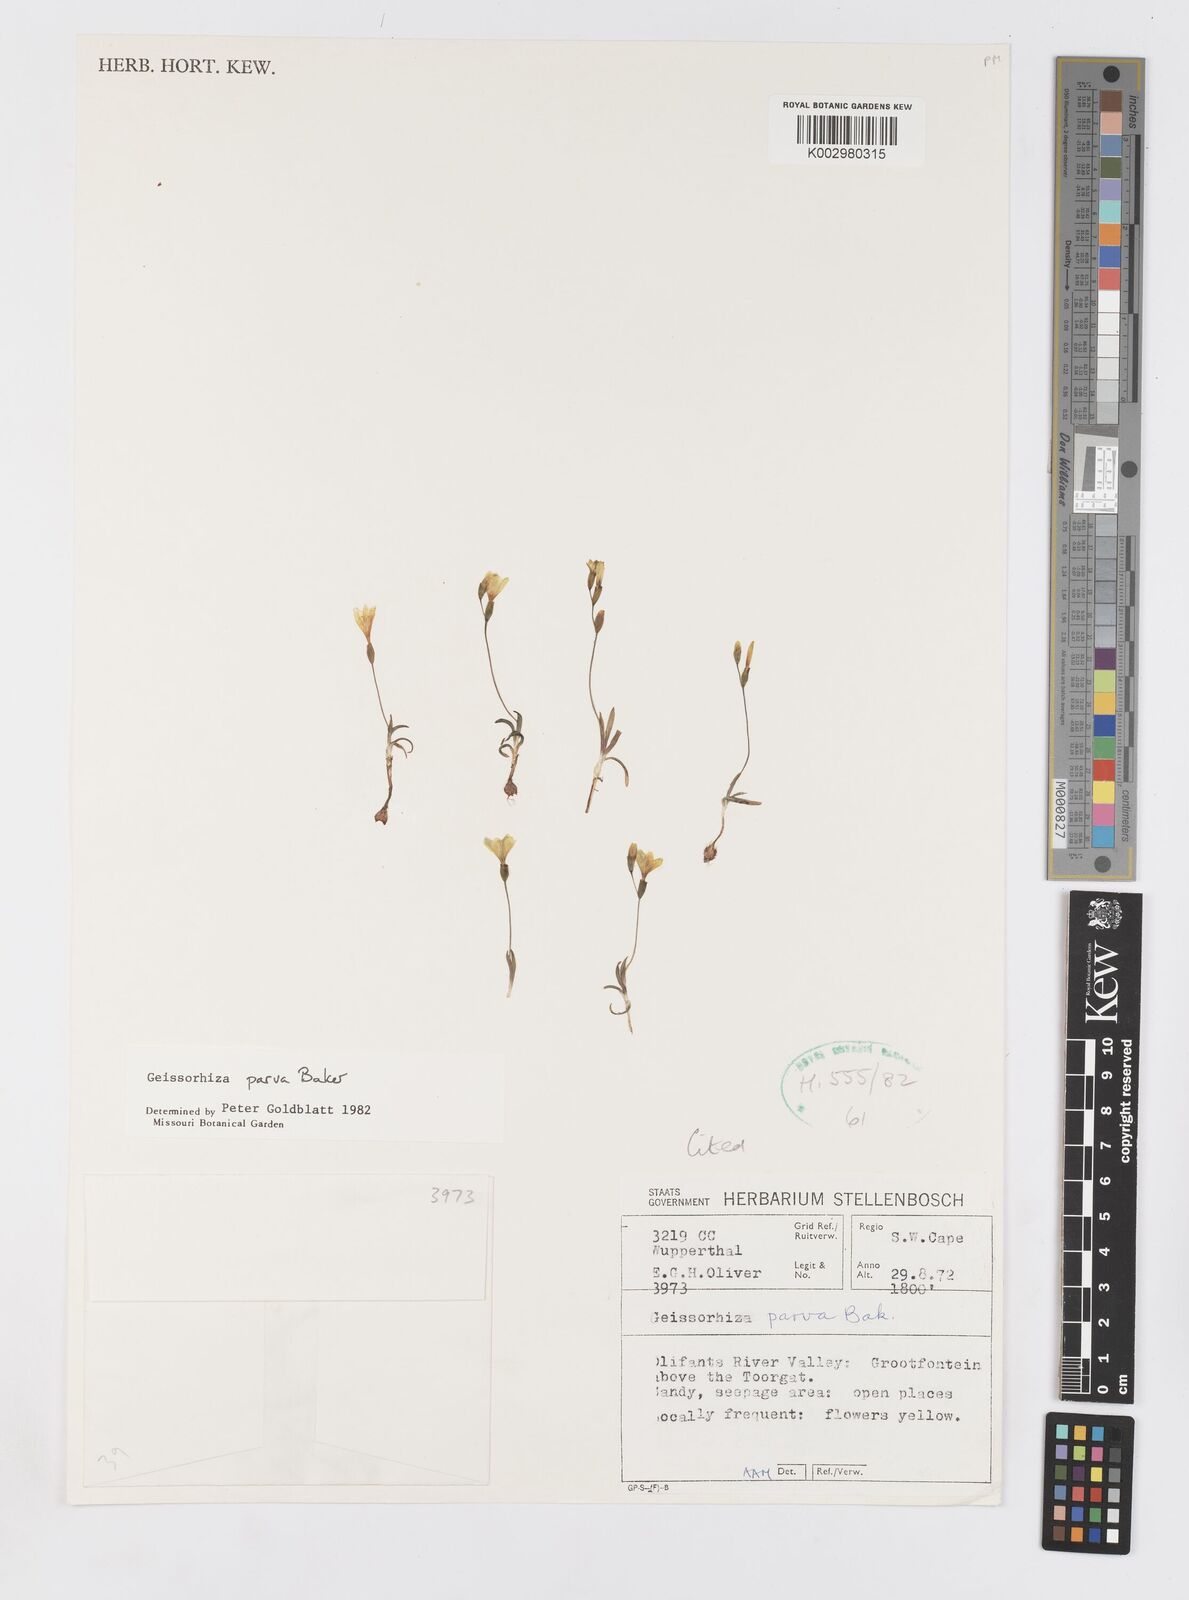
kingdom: Plantae
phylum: Tracheophyta
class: Liliopsida
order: Asparagales
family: Iridaceae
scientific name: Iridaceae
